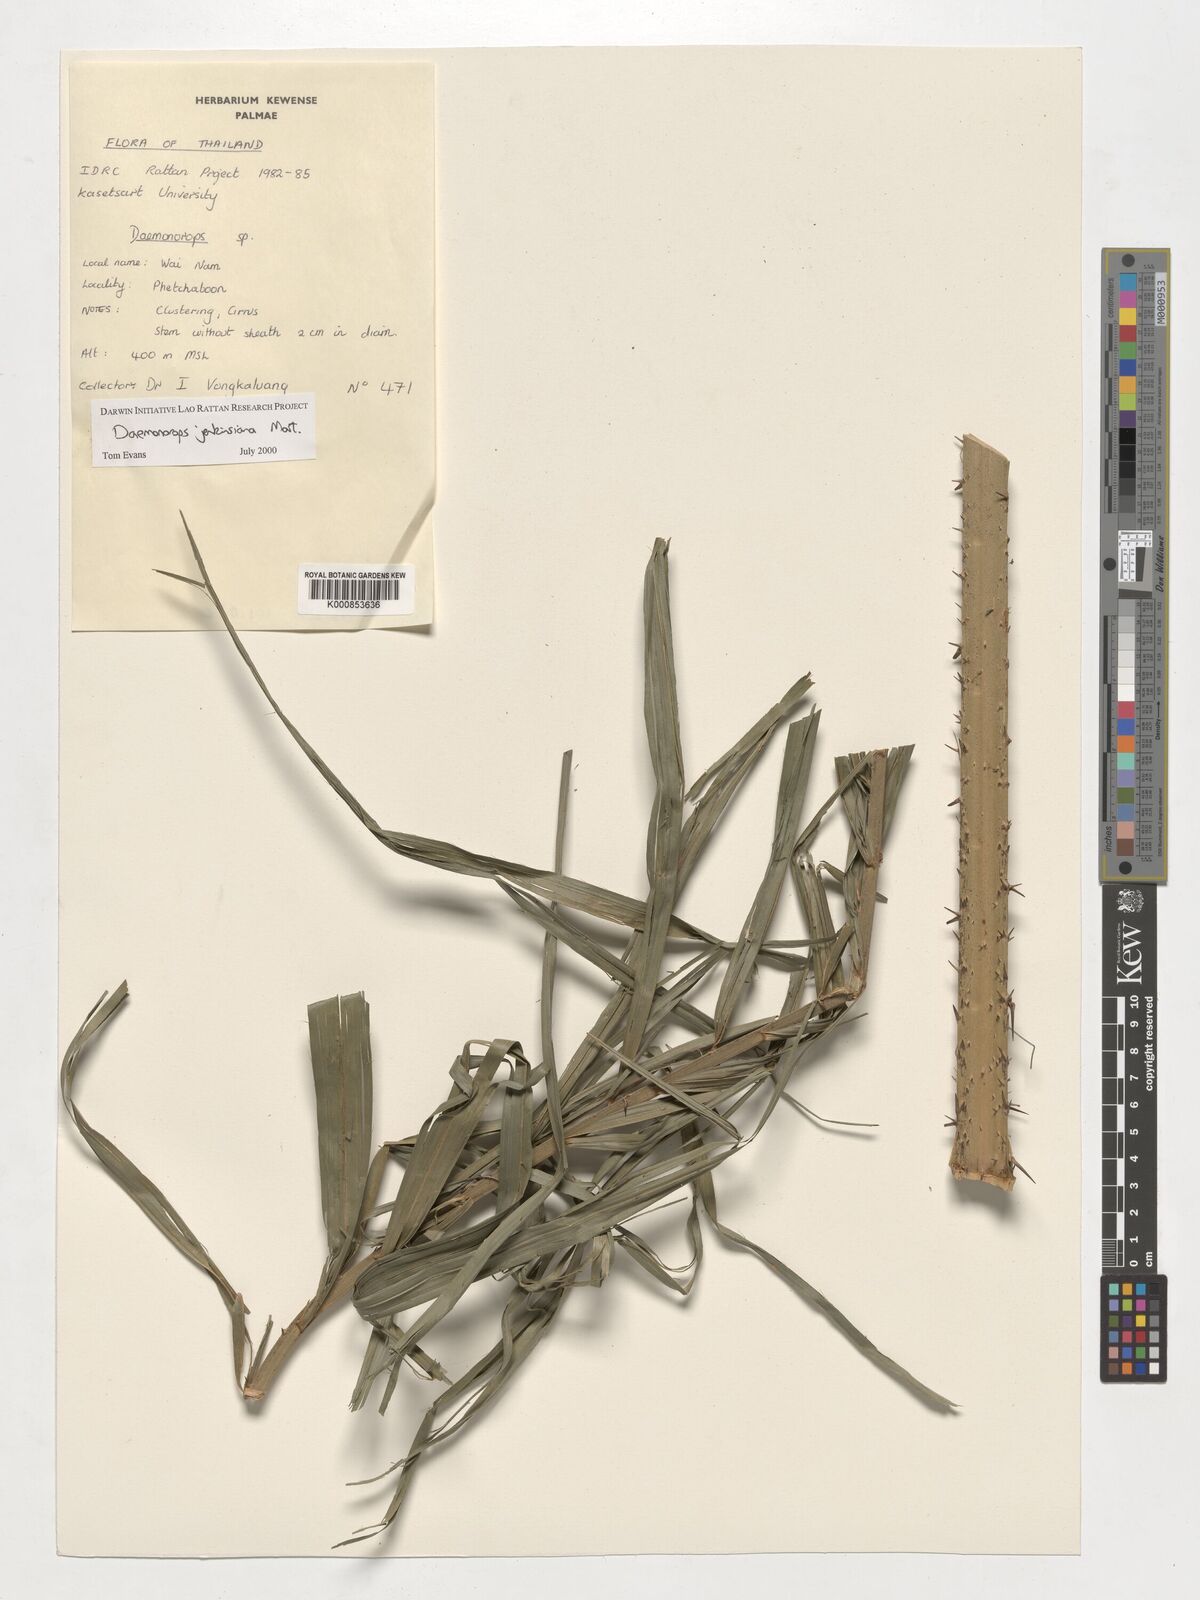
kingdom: Plantae
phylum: Tracheophyta
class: Liliopsida
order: Arecales
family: Arecaceae
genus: Calamus
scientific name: Calamus melanochaetes
